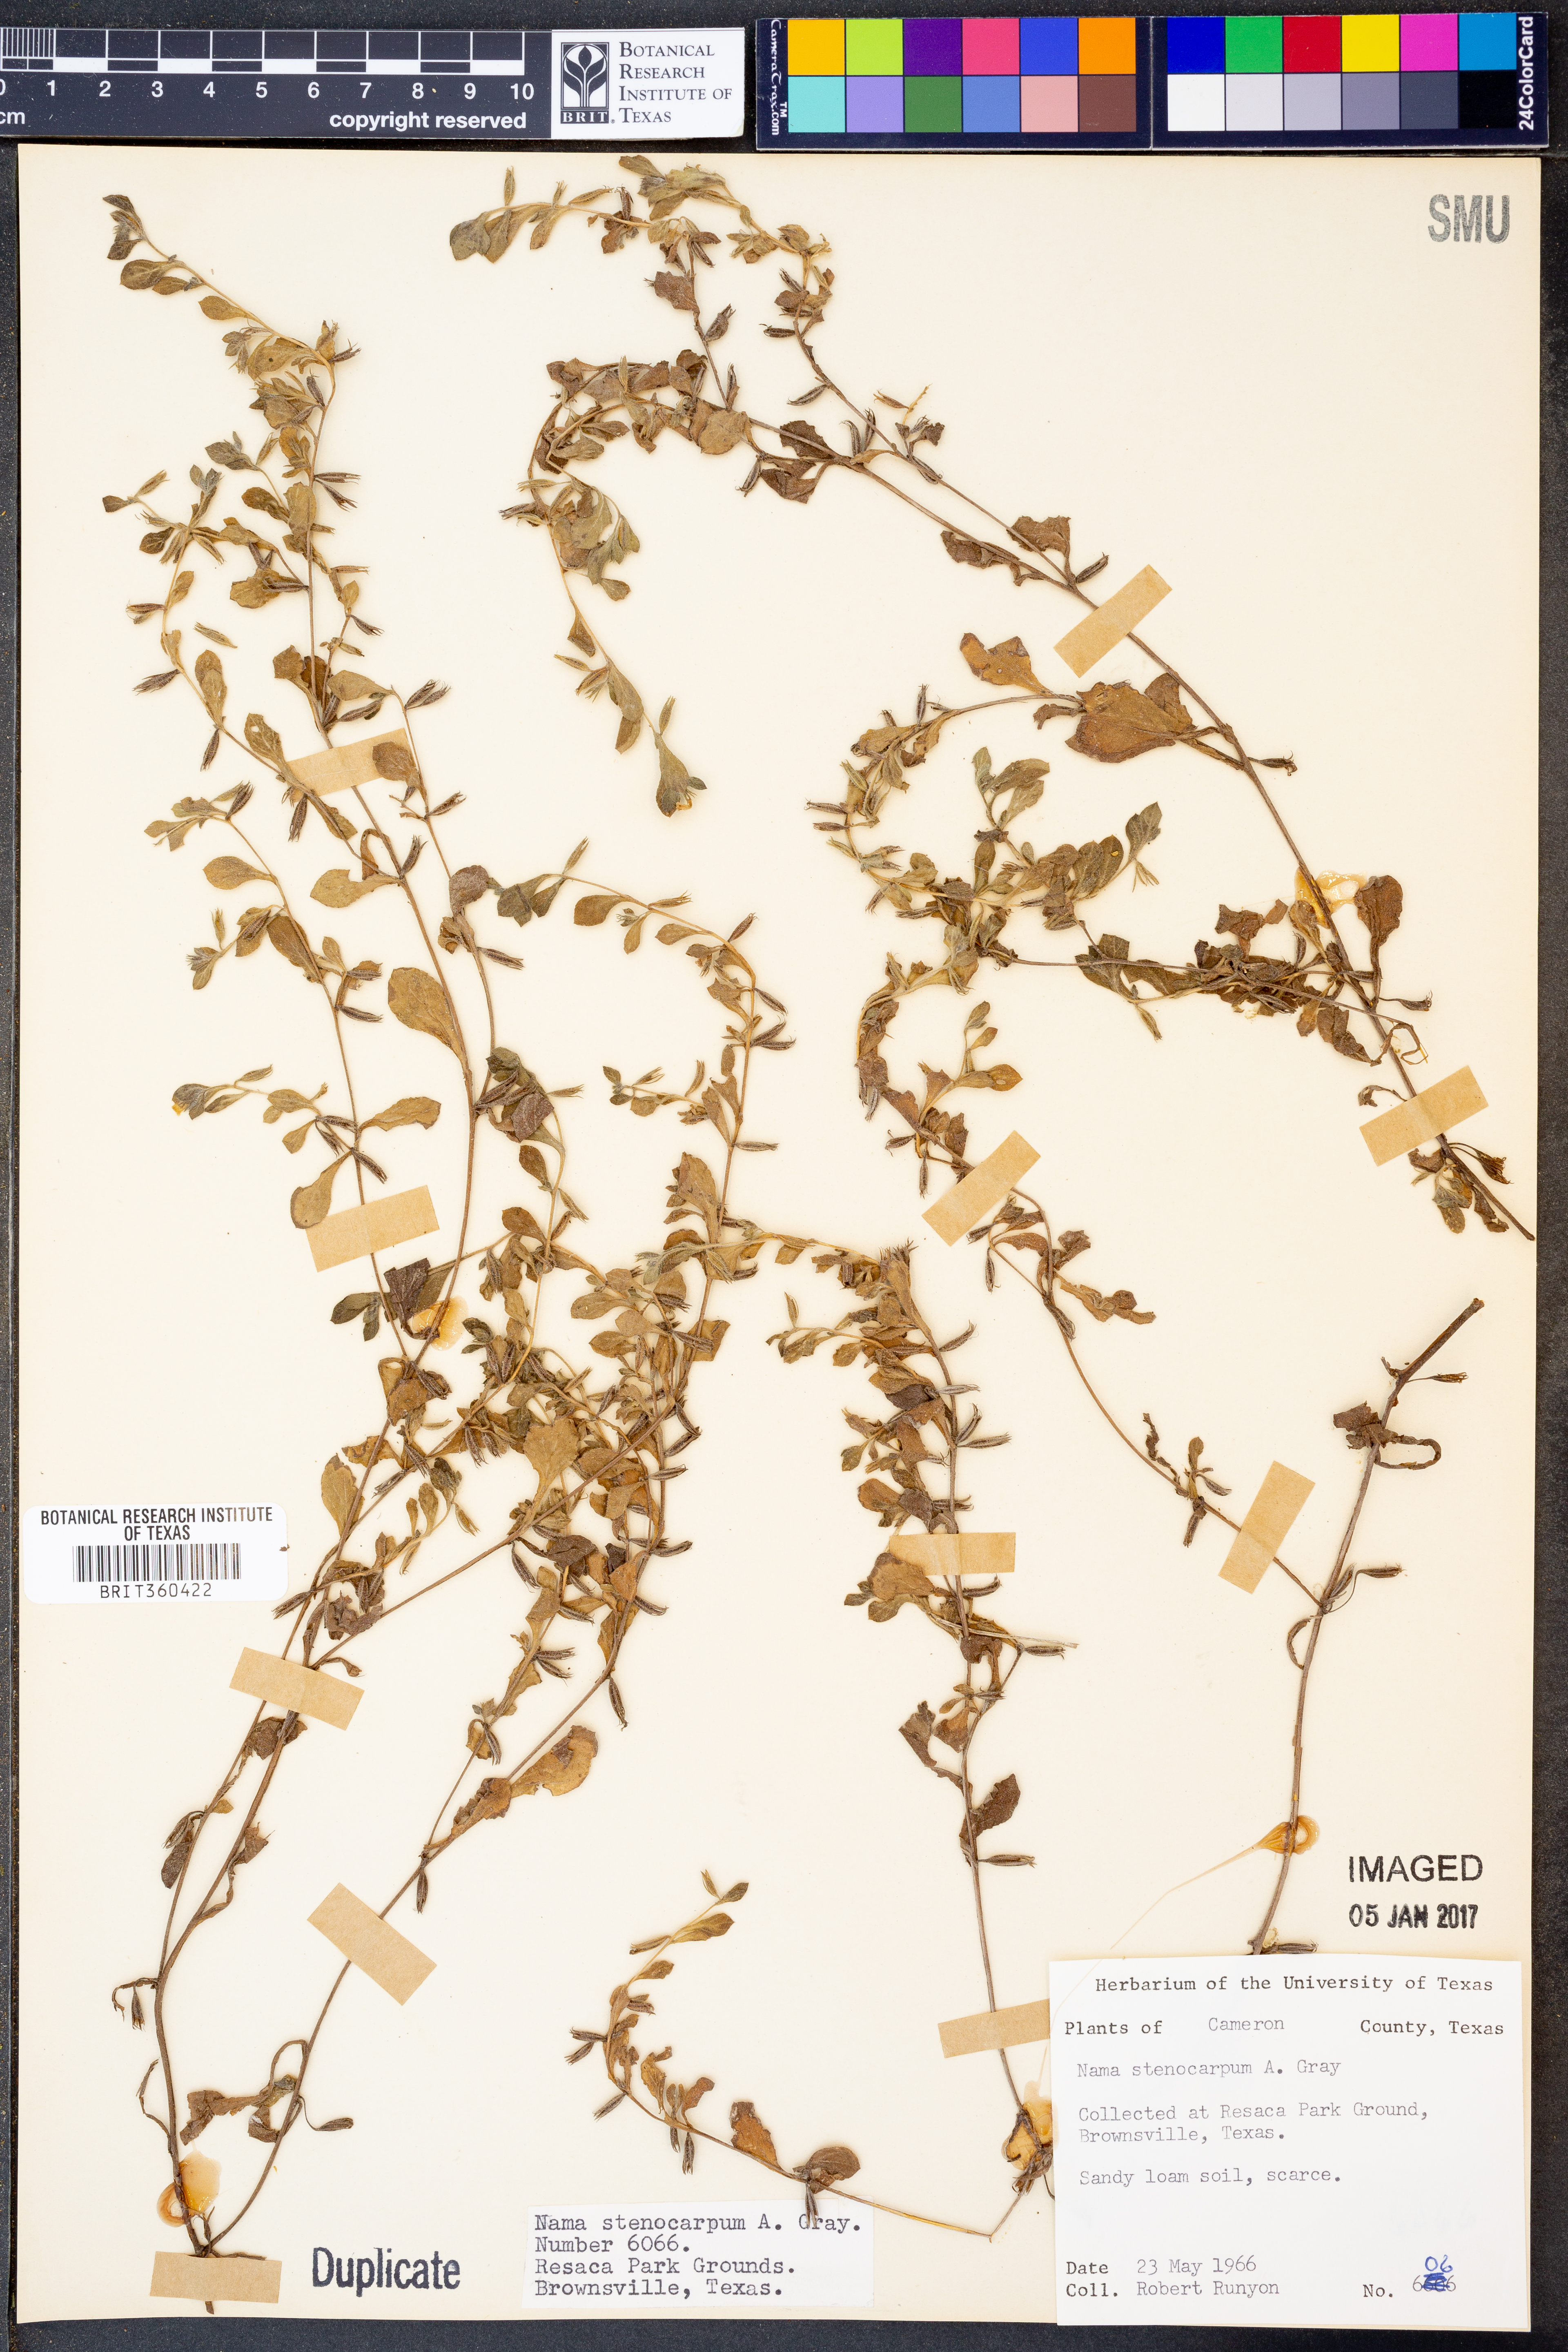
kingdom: Plantae
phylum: Tracheophyta
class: Magnoliopsida
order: Boraginales
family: Namaceae
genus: Nama
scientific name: Nama stenocarpa
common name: Mud fiddleleaf
